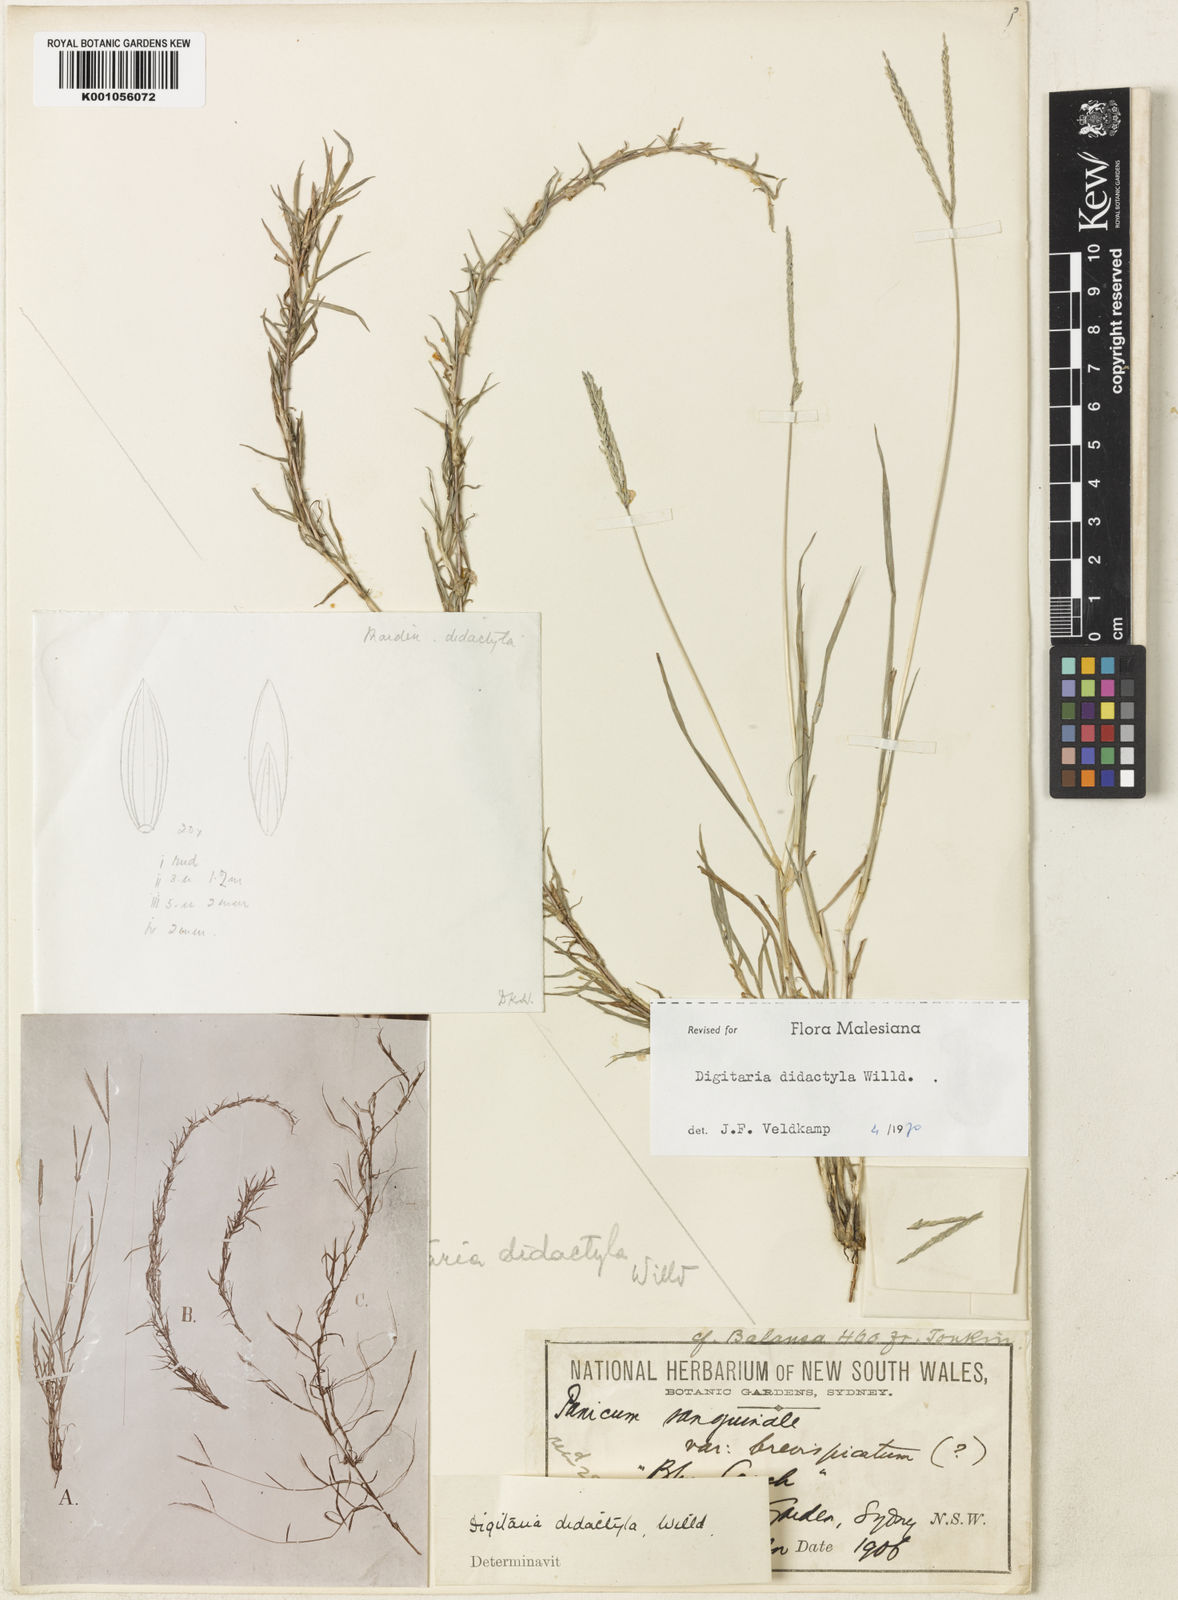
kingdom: Plantae
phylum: Tracheophyta
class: Liliopsida
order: Poales
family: Poaceae
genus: Digitaria
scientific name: Digitaria didactyla
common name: Blue couch
